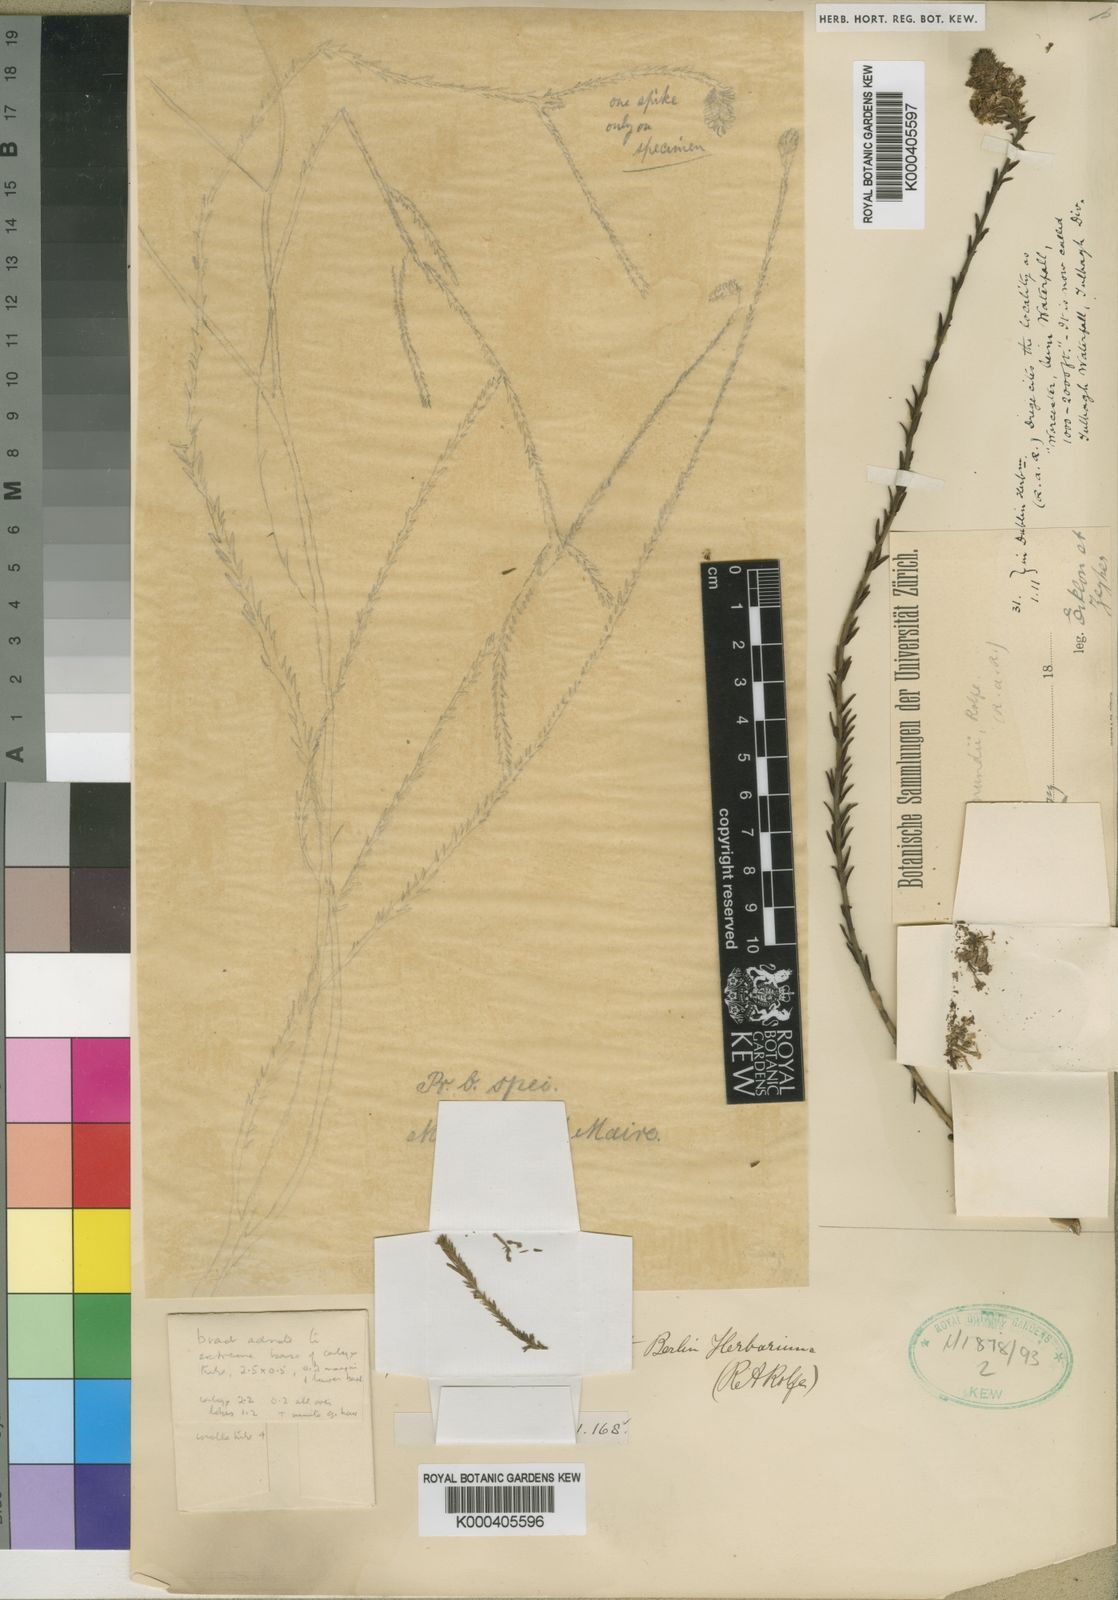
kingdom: Plantae
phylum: Tracheophyta
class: Magnoliopsida
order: Lamiales
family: Scrophulariaceae
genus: Selago
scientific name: Selago mundii
